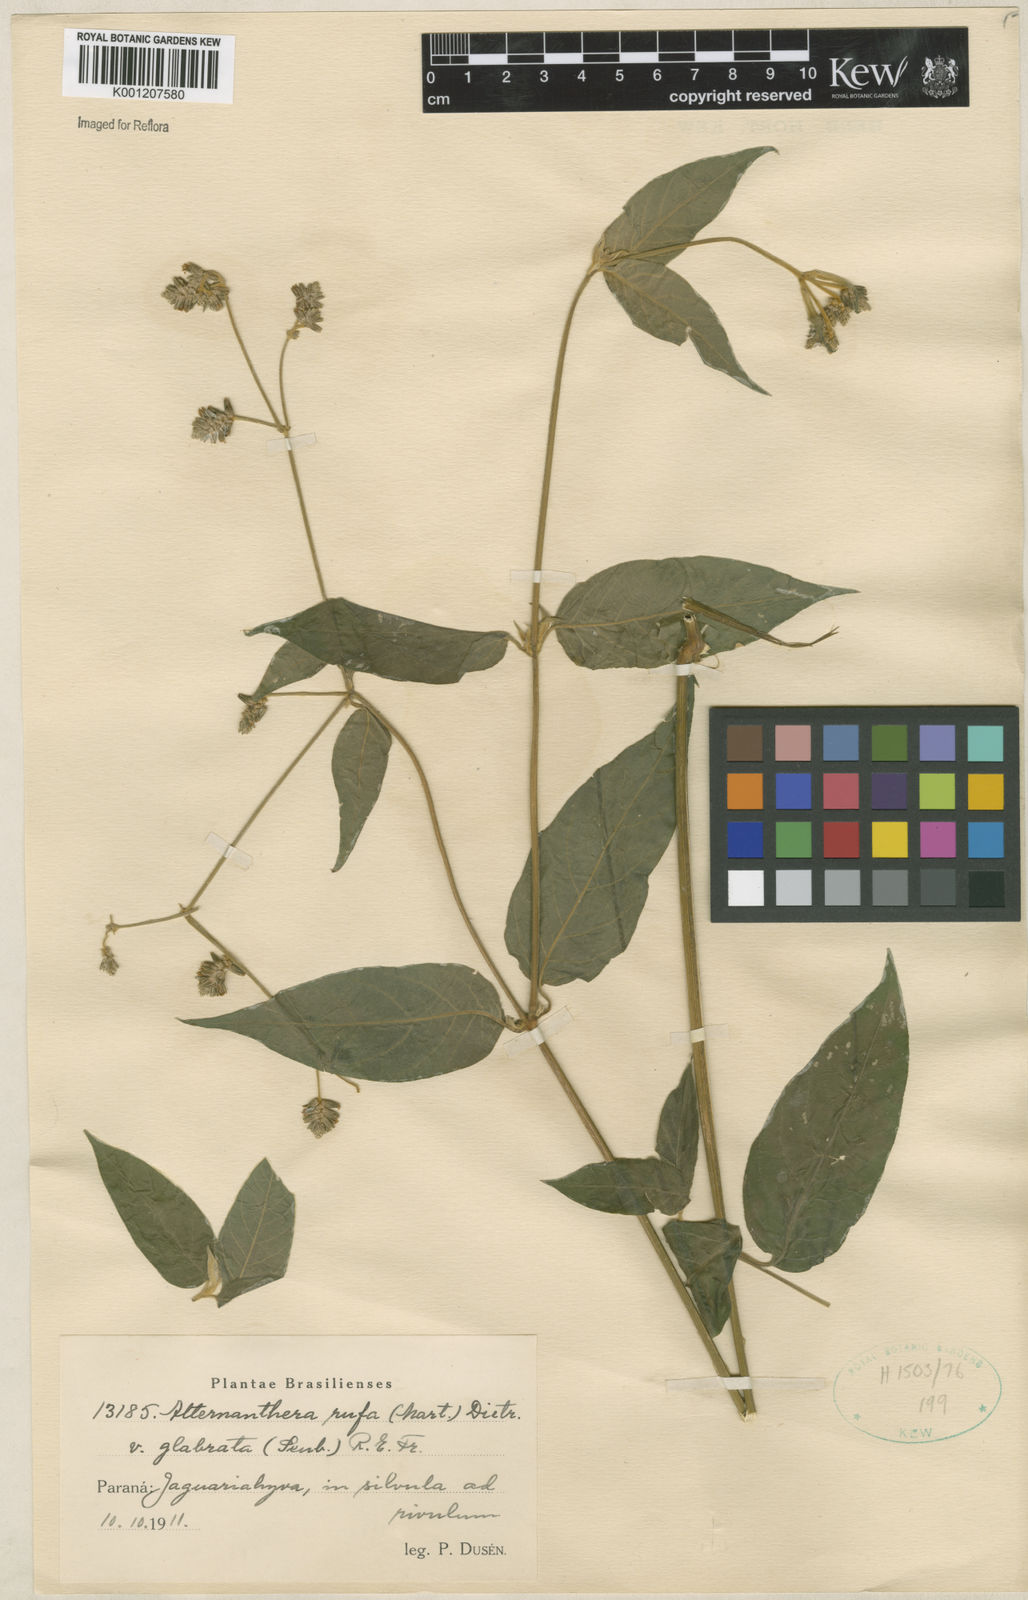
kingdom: Plantae
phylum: Tracheophyta
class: Magnoliopsida
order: Caryophyllales
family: Amaranthaceae
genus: Alternanthera
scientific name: Alternanthera rufa
